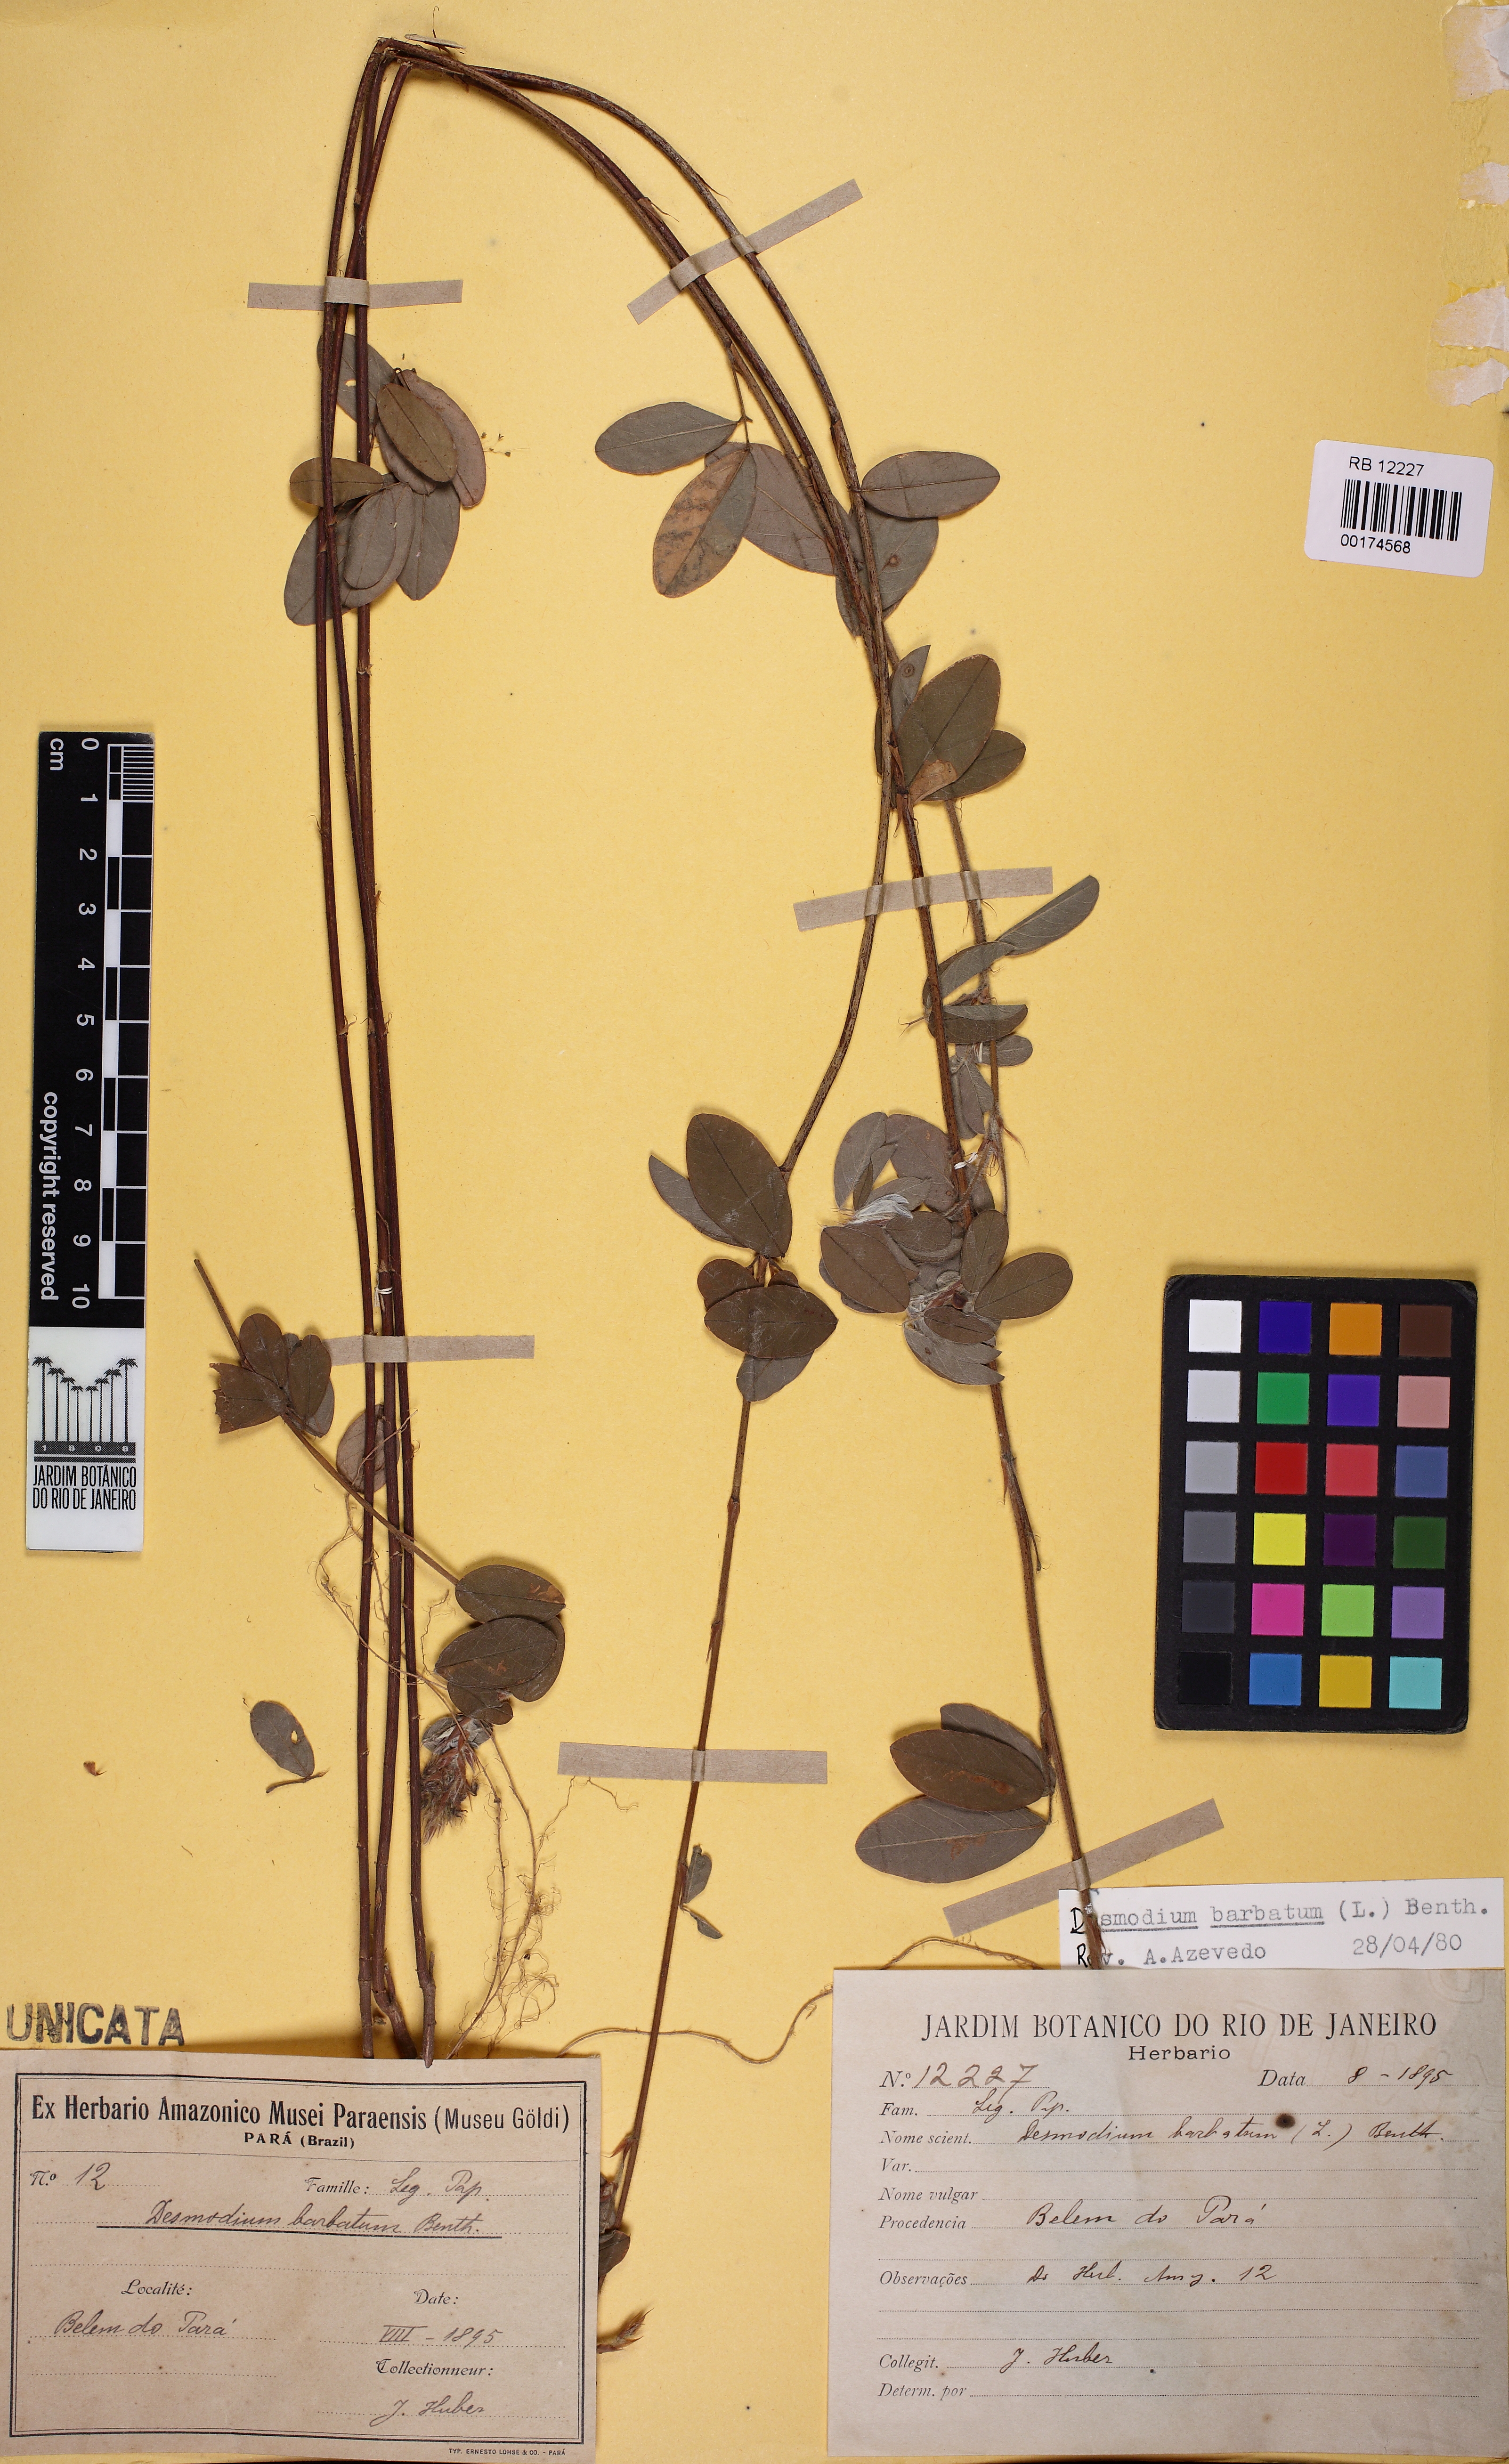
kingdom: Plantae
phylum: Tracheophyta
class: Magnoliopsida
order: Fabales
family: Fabaceae
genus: Grona
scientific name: Grona barbata
